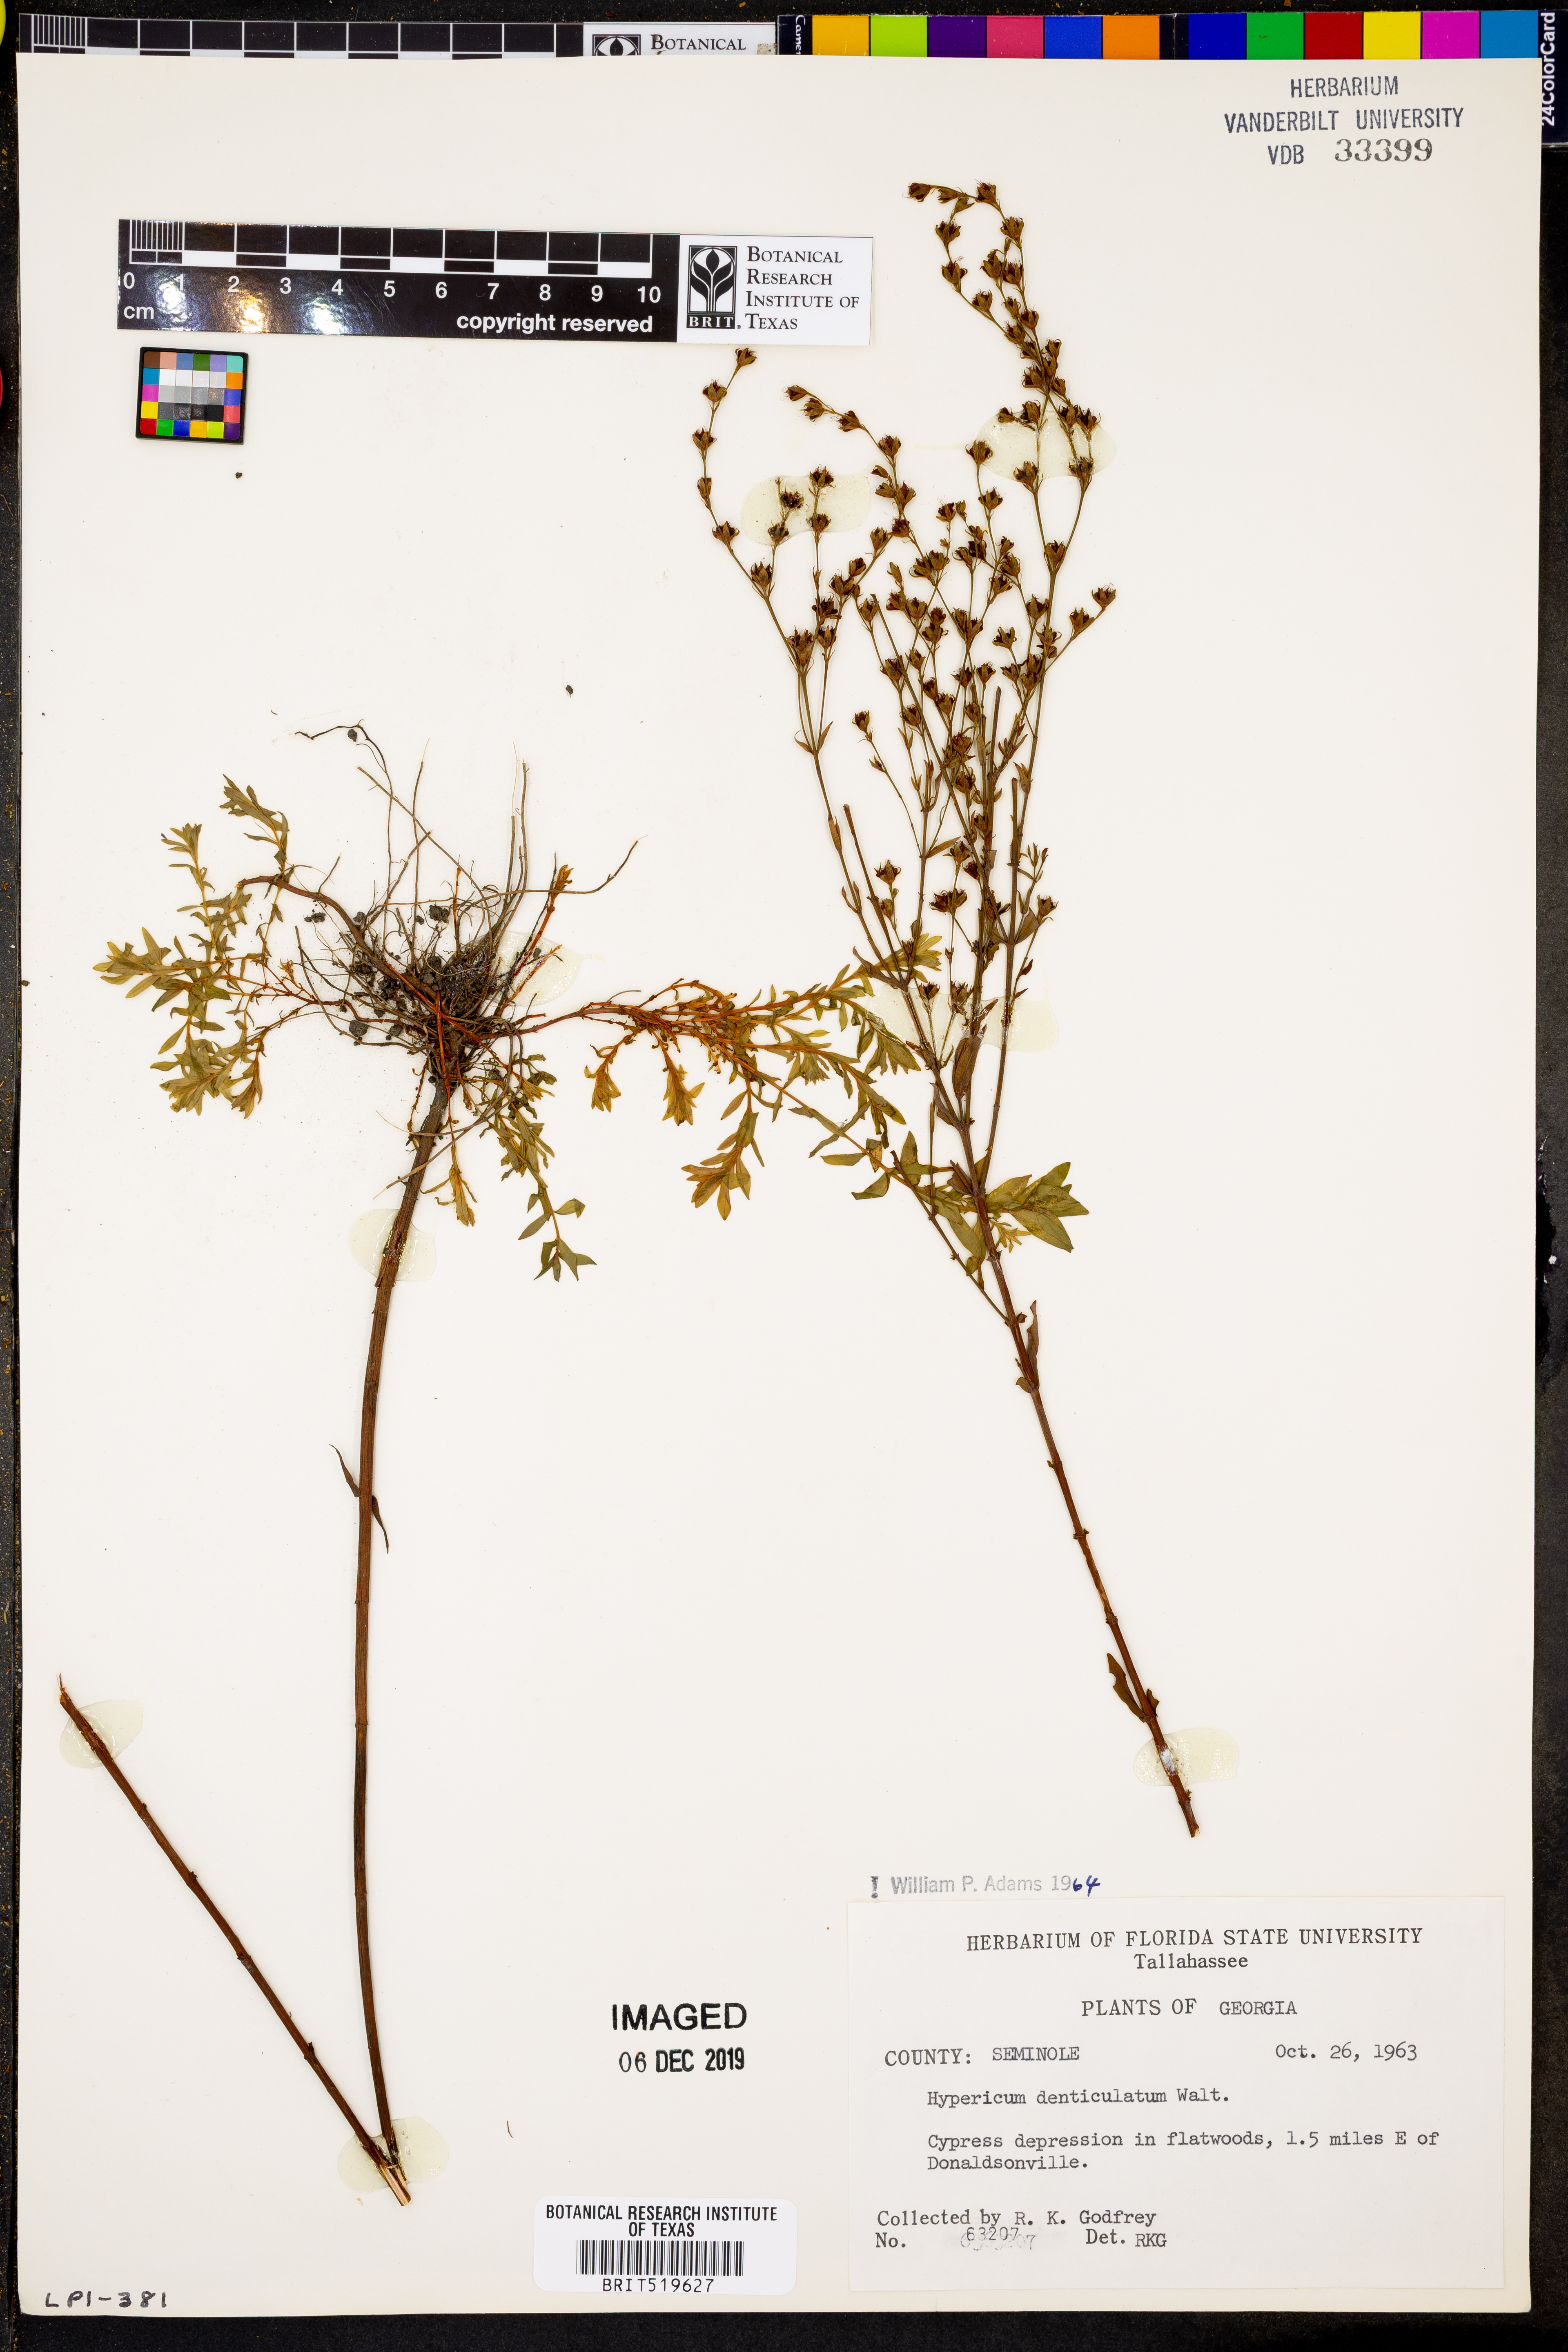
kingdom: Plantae
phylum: Tracheophyta
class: Magnoliopsida
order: Malpighiales
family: Hypericaceae
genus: Hypericum
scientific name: Hypericum denticulatum
